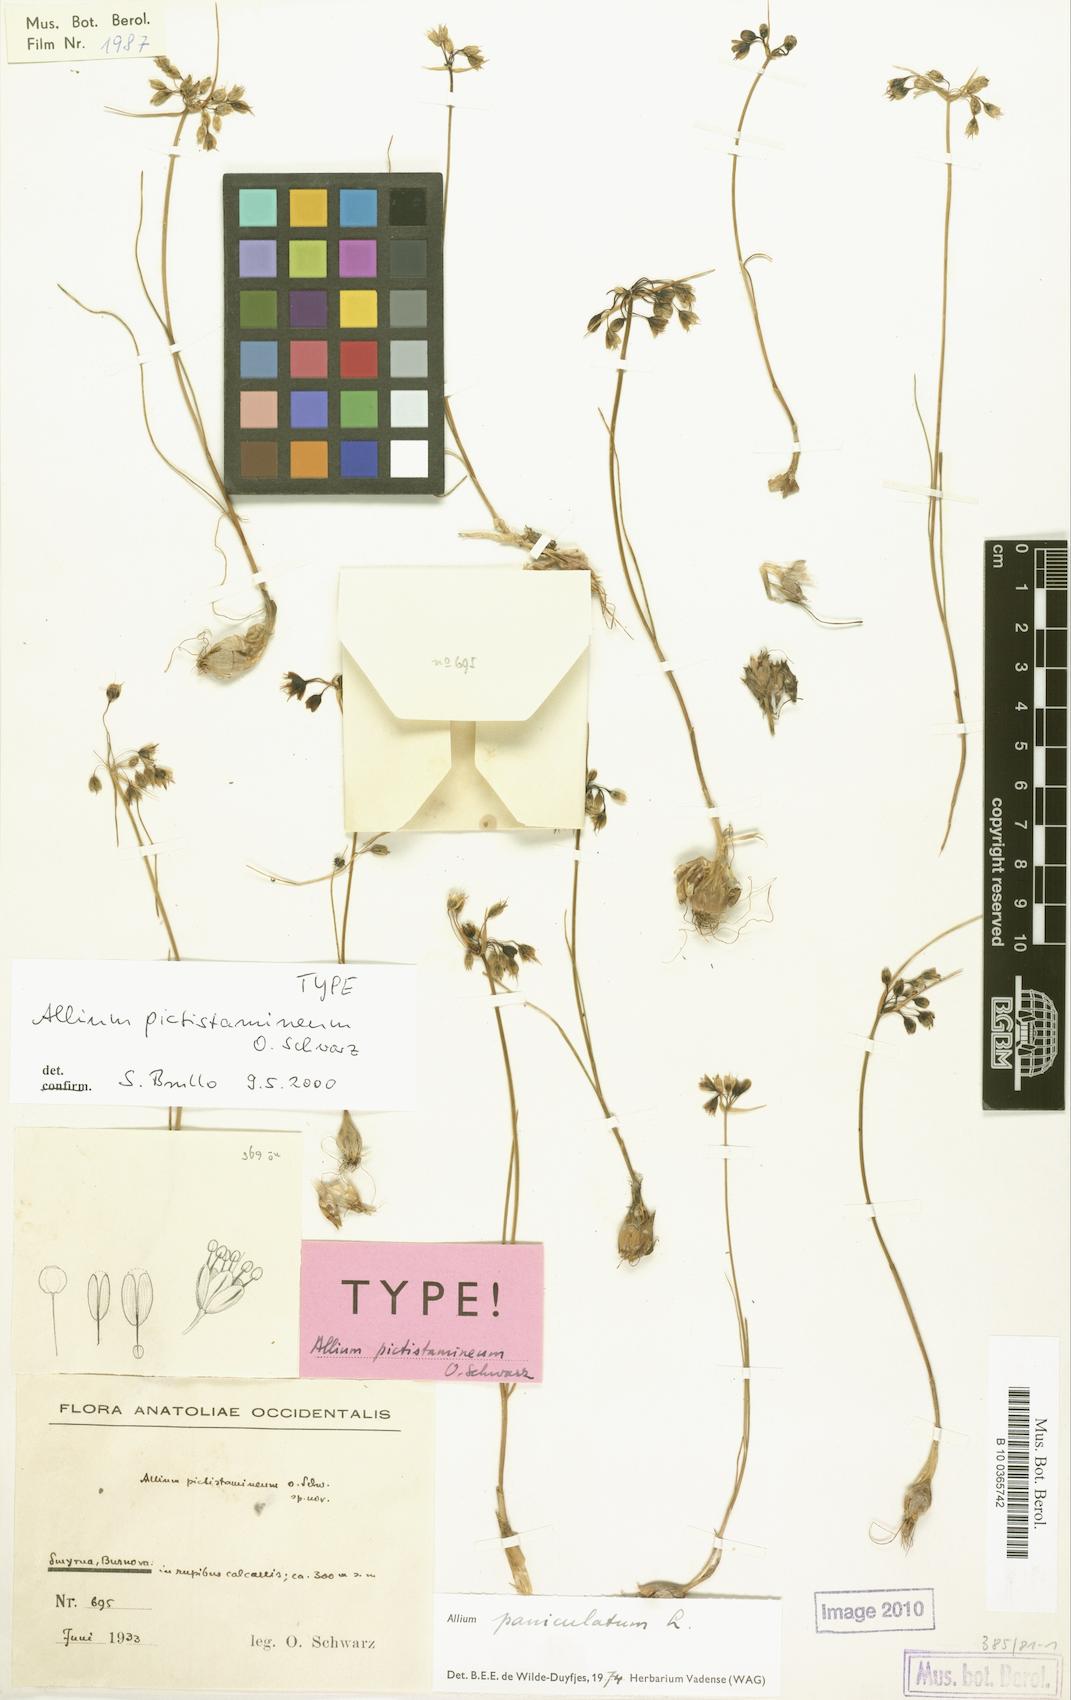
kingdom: Plantae
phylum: Tracheophyta
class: Liliopsida
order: Asparagales
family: Amaryllidaceae
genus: Allium
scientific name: Allium paniculatum
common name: Pale garlic
